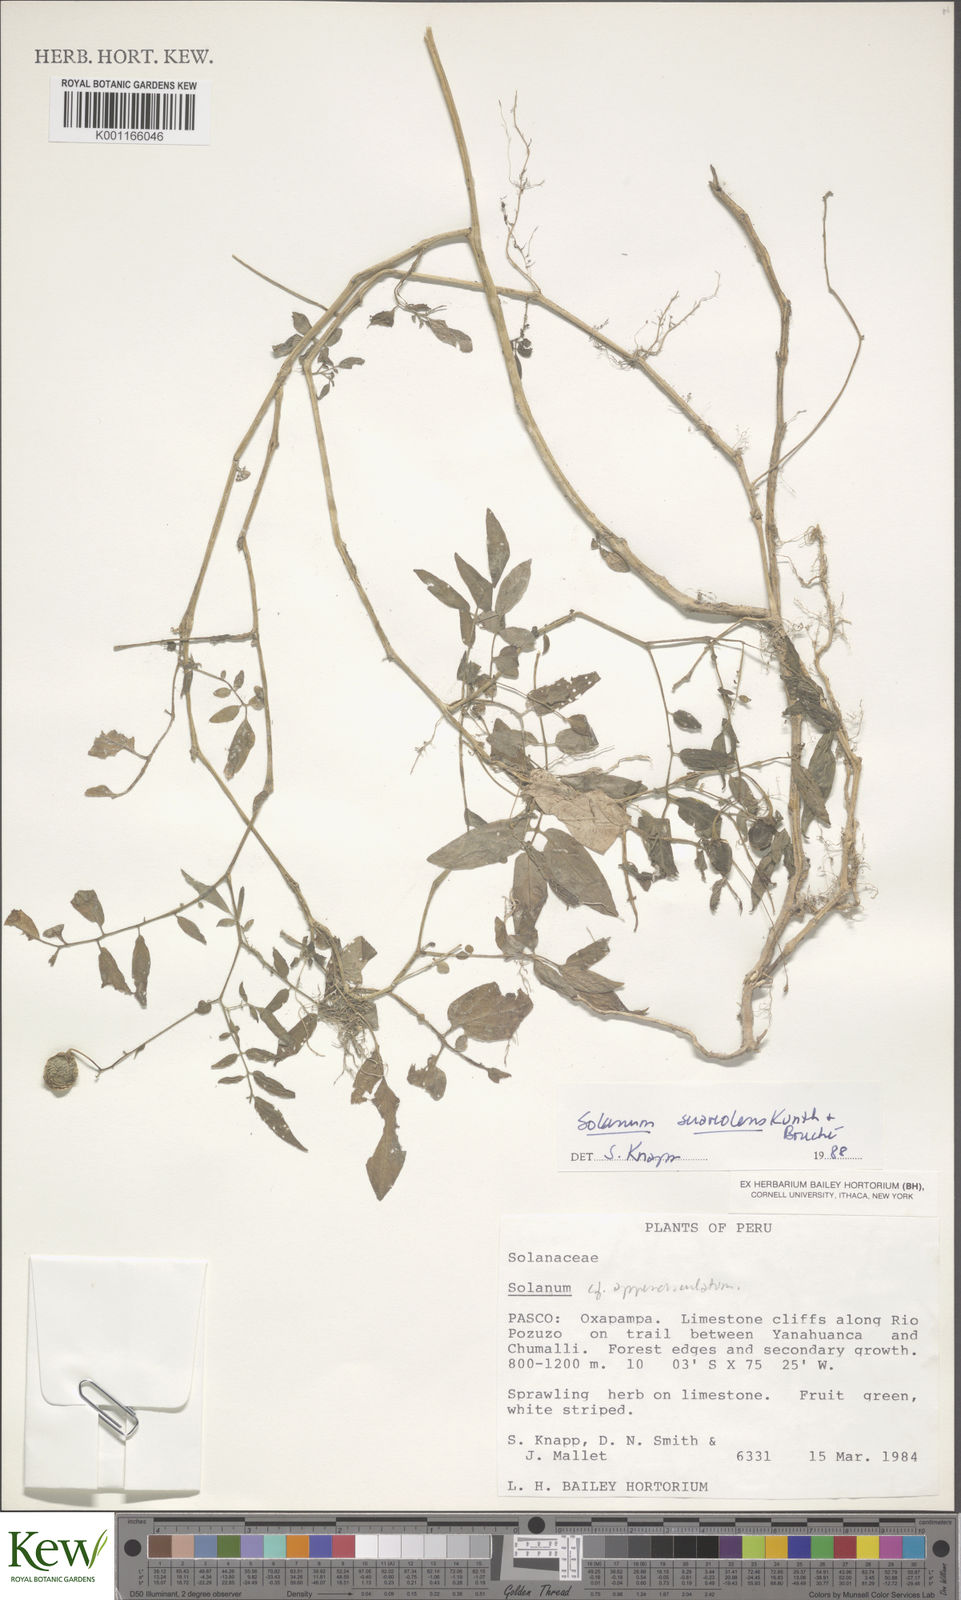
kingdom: Plantae
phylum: Tracheophyta
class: Magnoliopsida
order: Solanales
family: Solanaceae
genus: Solanum
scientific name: Solanum suaveolens
